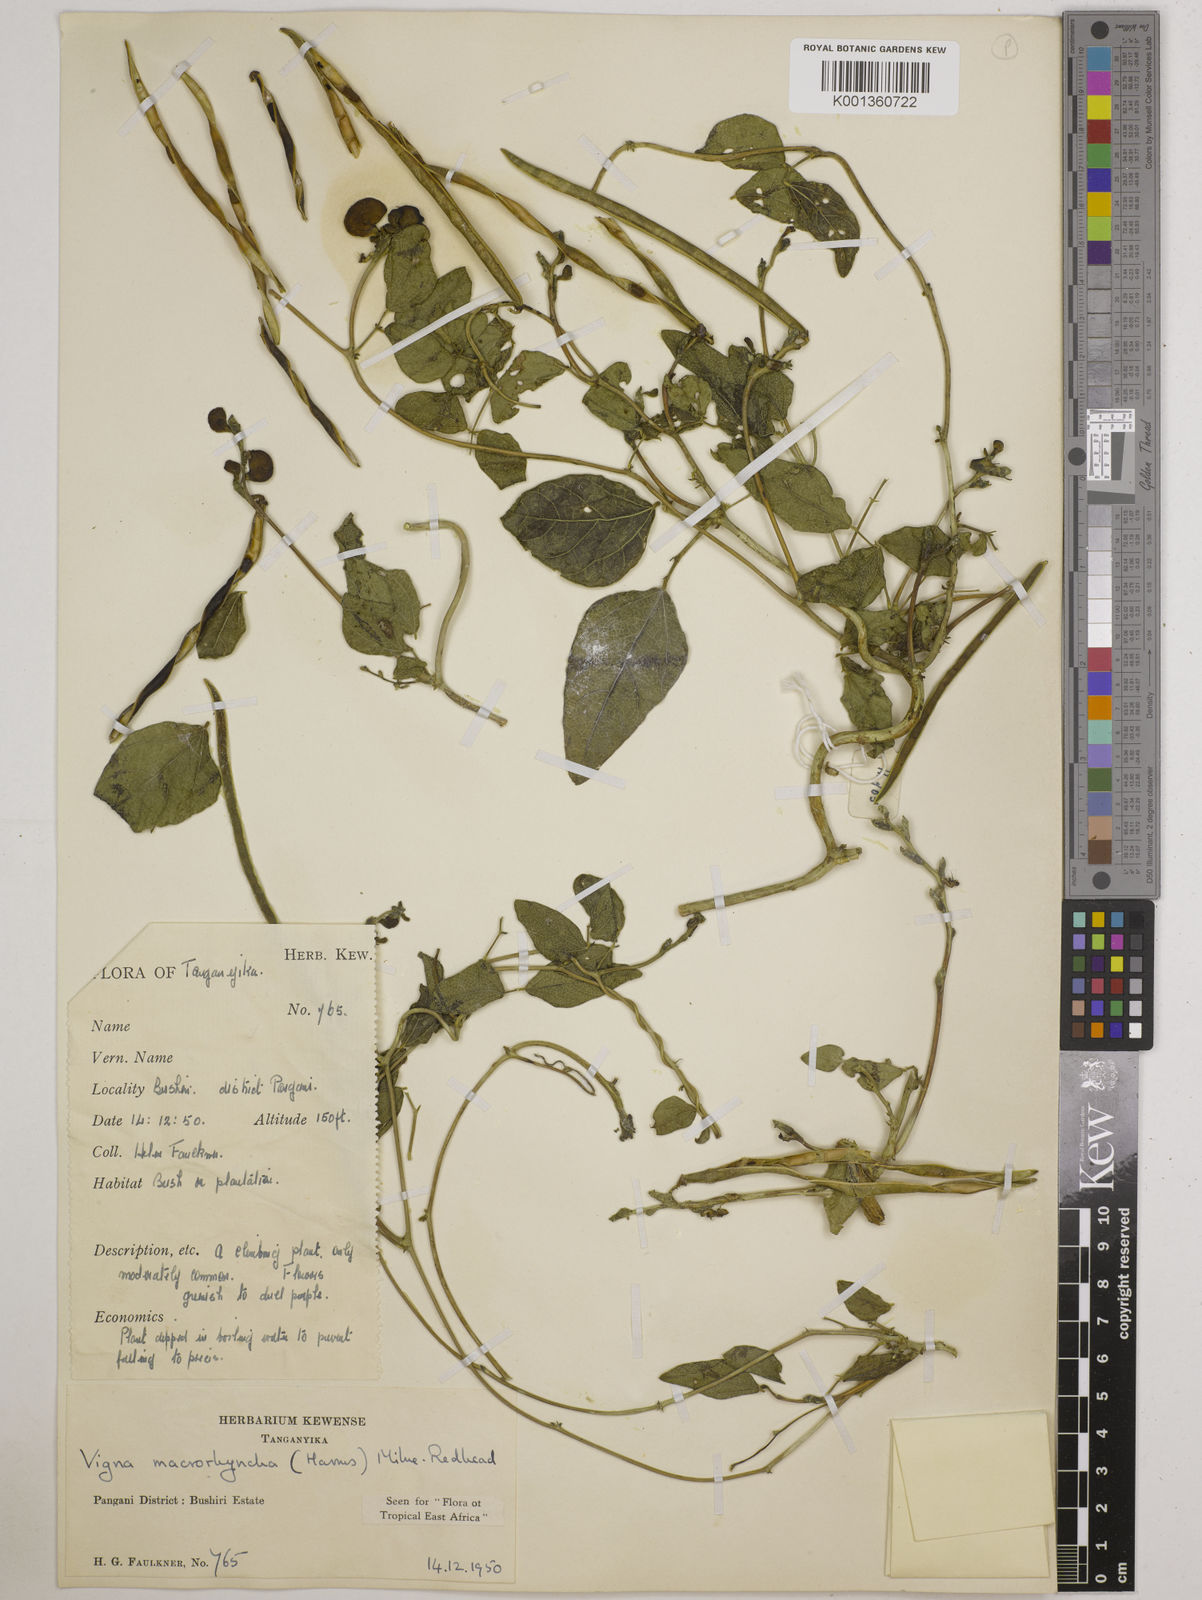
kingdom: Plantae
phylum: Tracheophyta
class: Magnoliopsida
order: Fabales
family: Fabaceae
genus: Wajira
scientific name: Wajira grahamiana
